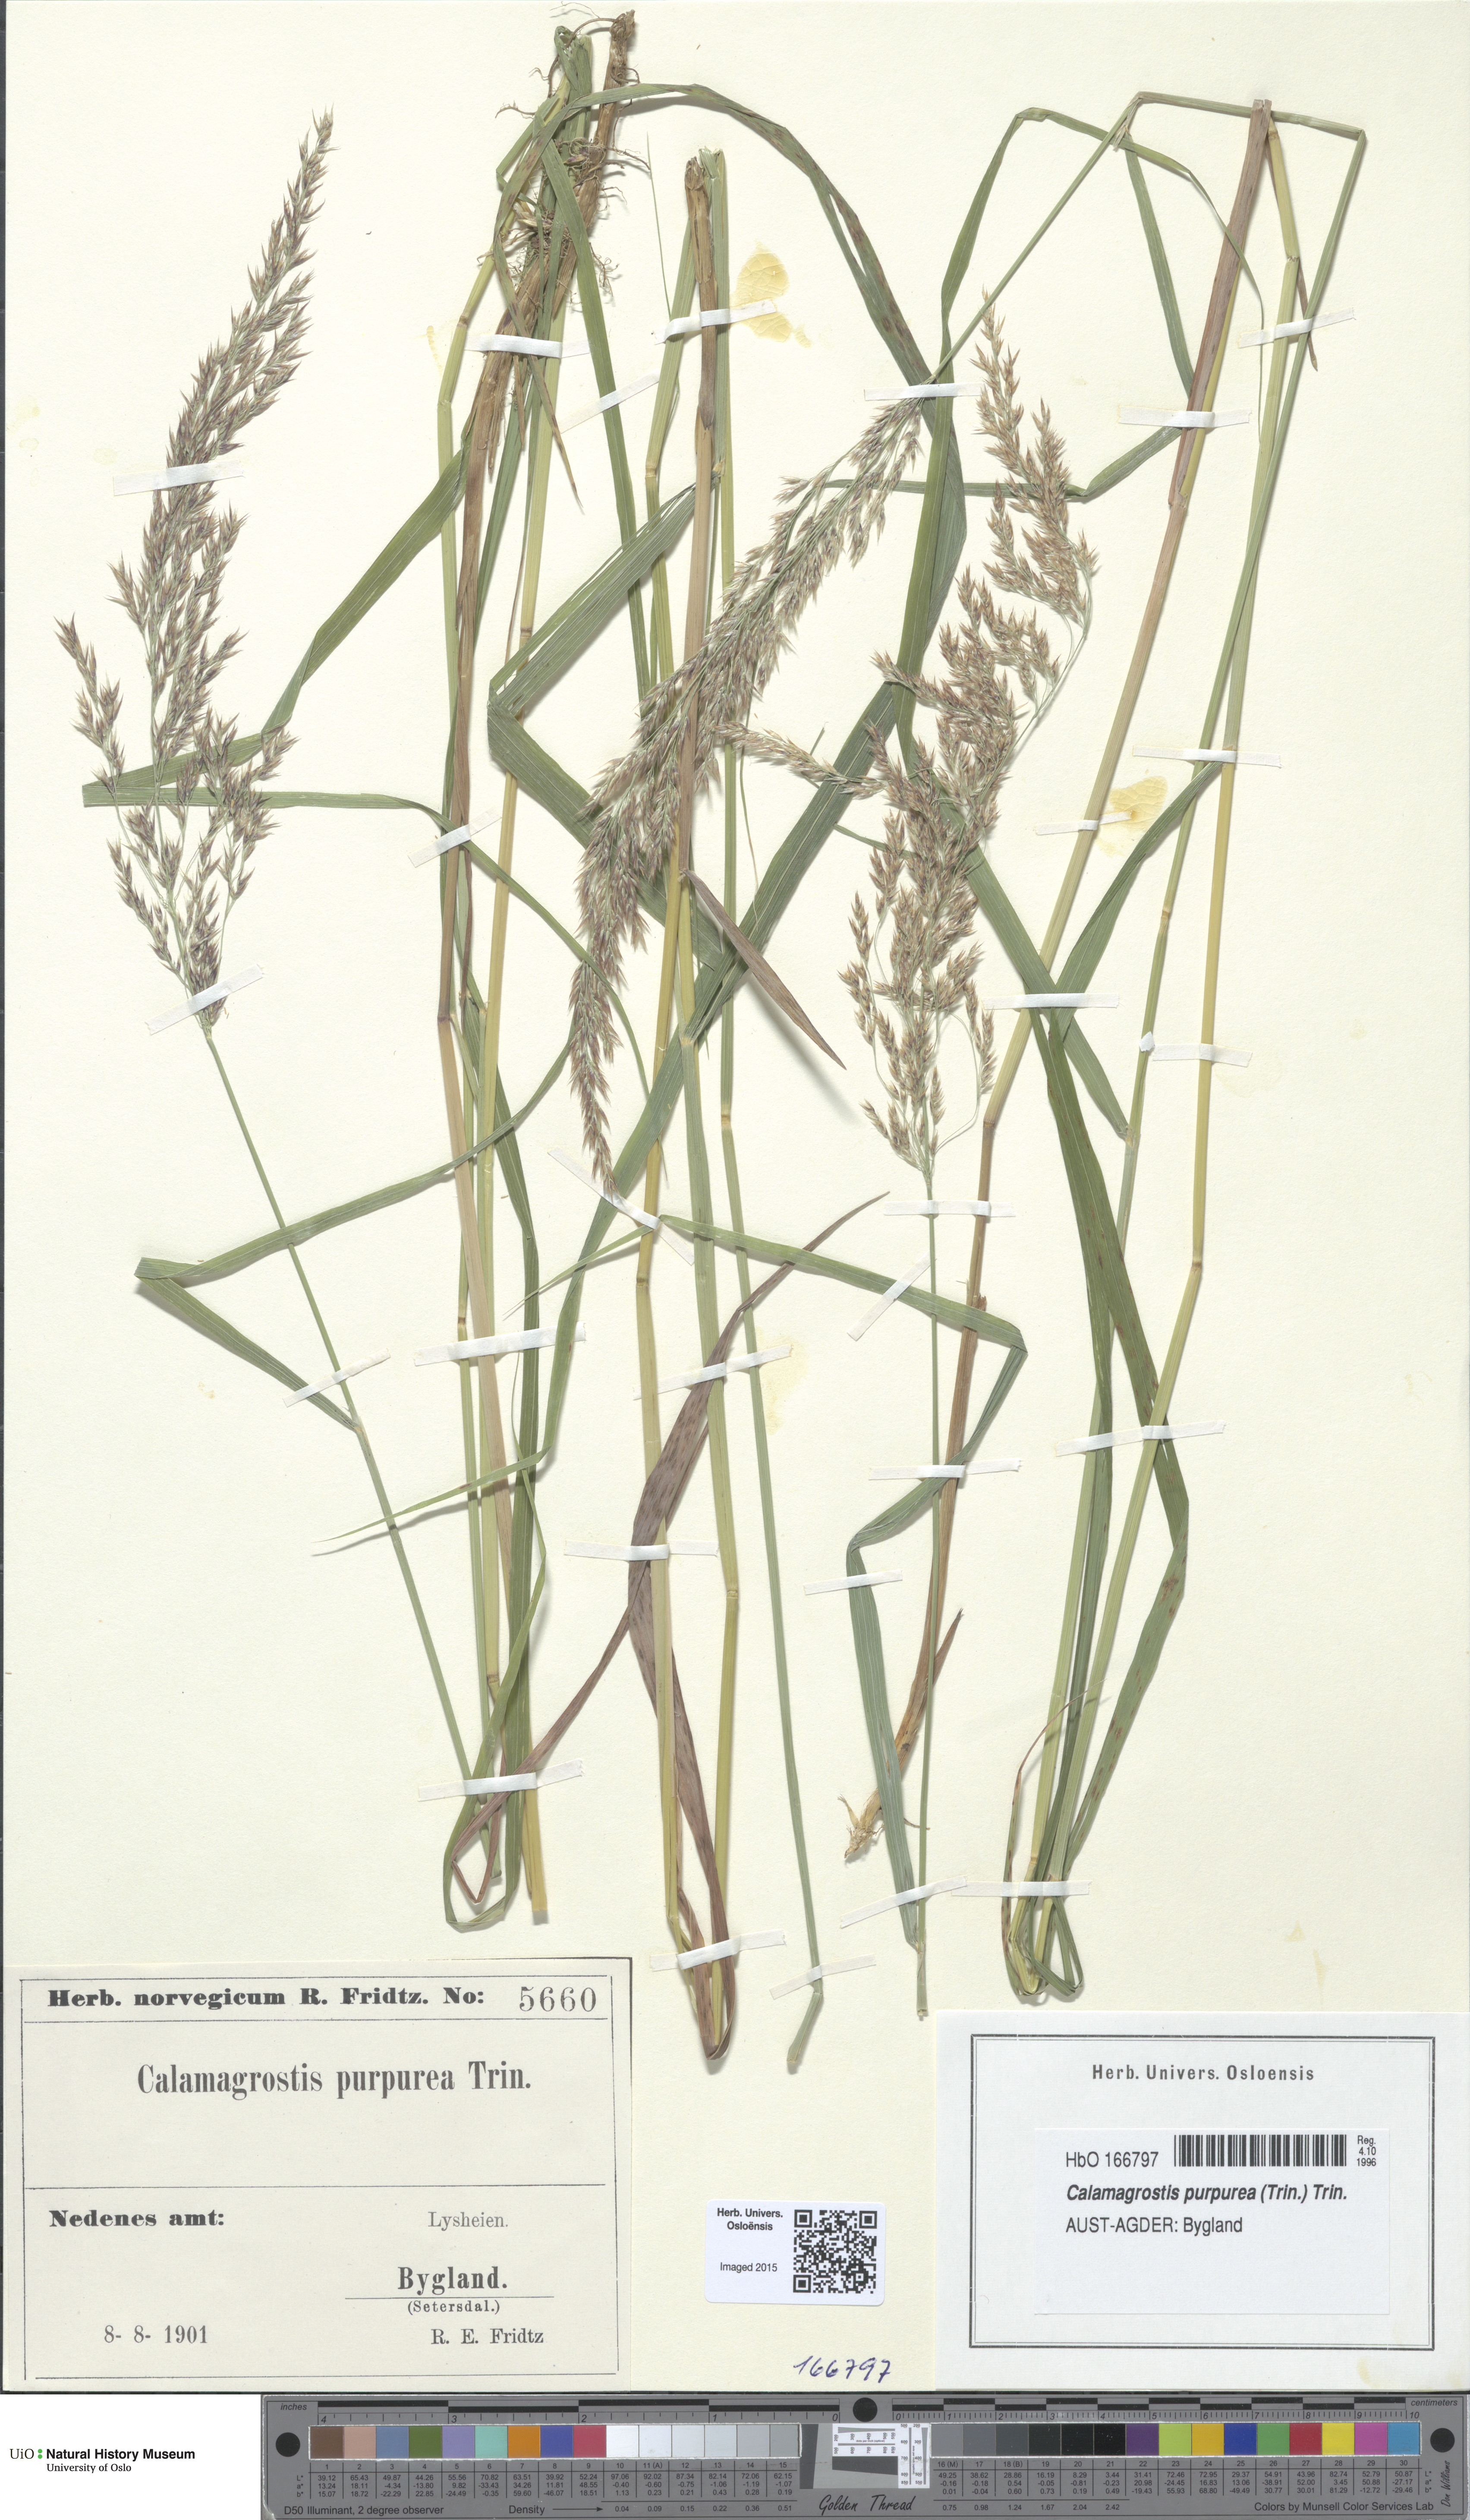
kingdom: Plantae
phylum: Tracheophyta
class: Liliopsida
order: Poales
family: Poaceae
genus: Calamagrostis
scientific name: Calamagrostis purpurea
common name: Scandinavian small-reed
